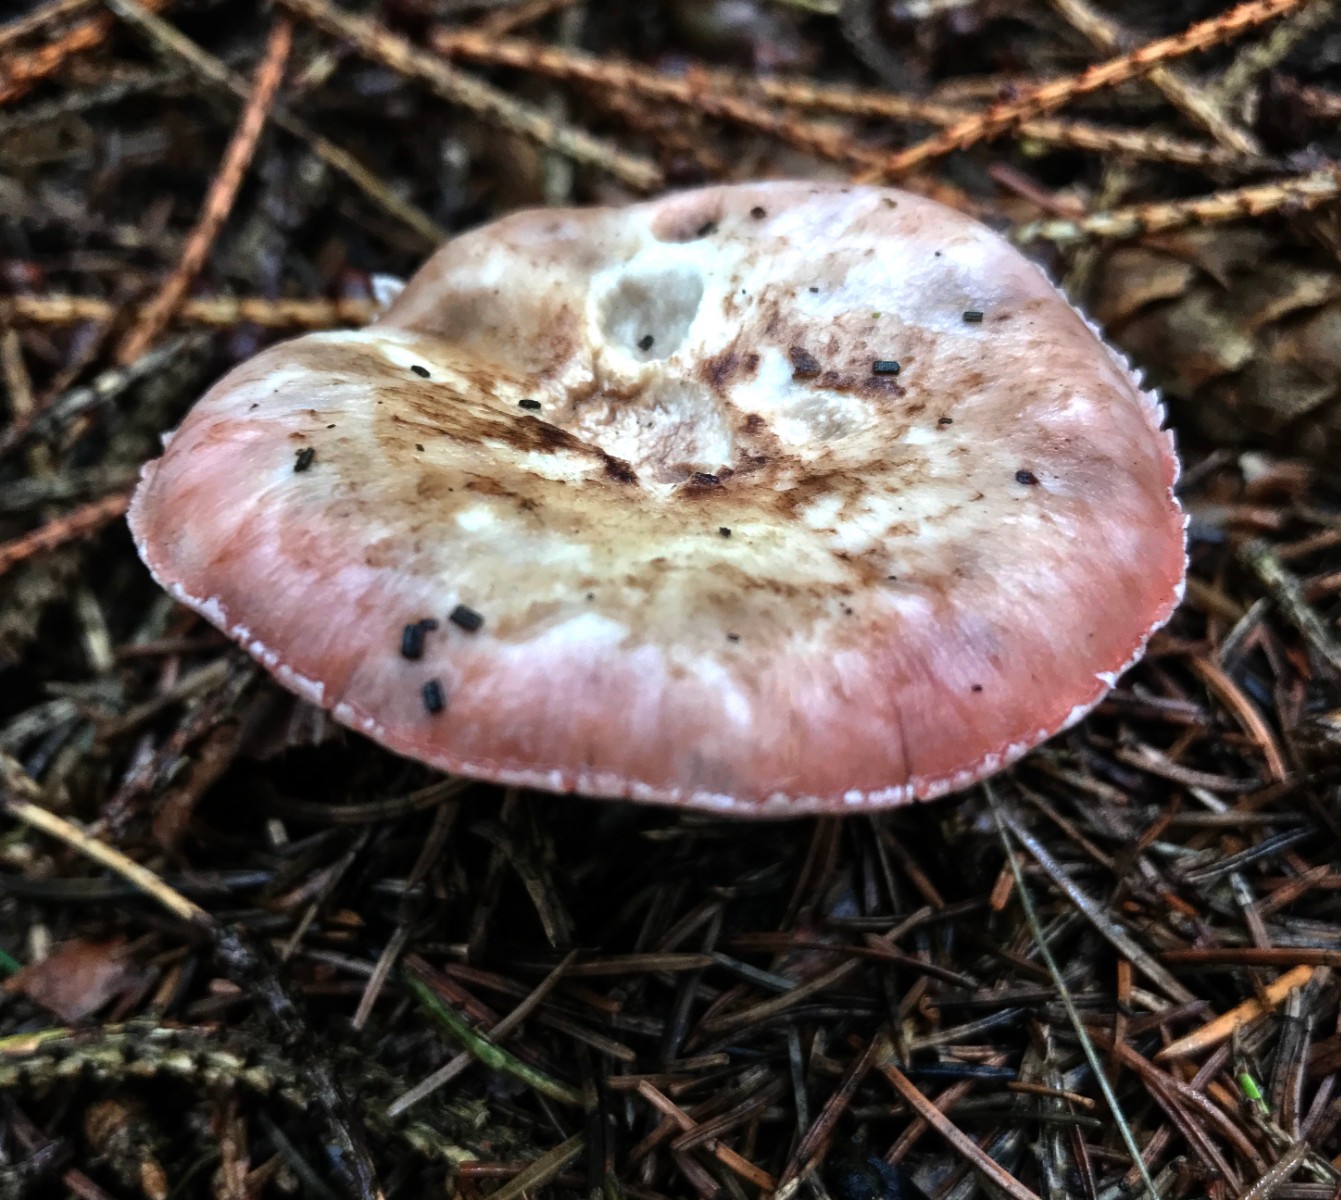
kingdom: Fungi
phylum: Basidiomycota
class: Agaricomycetes
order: Agaricales
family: Agaricaceae
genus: Agaricus
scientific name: Agaricus
